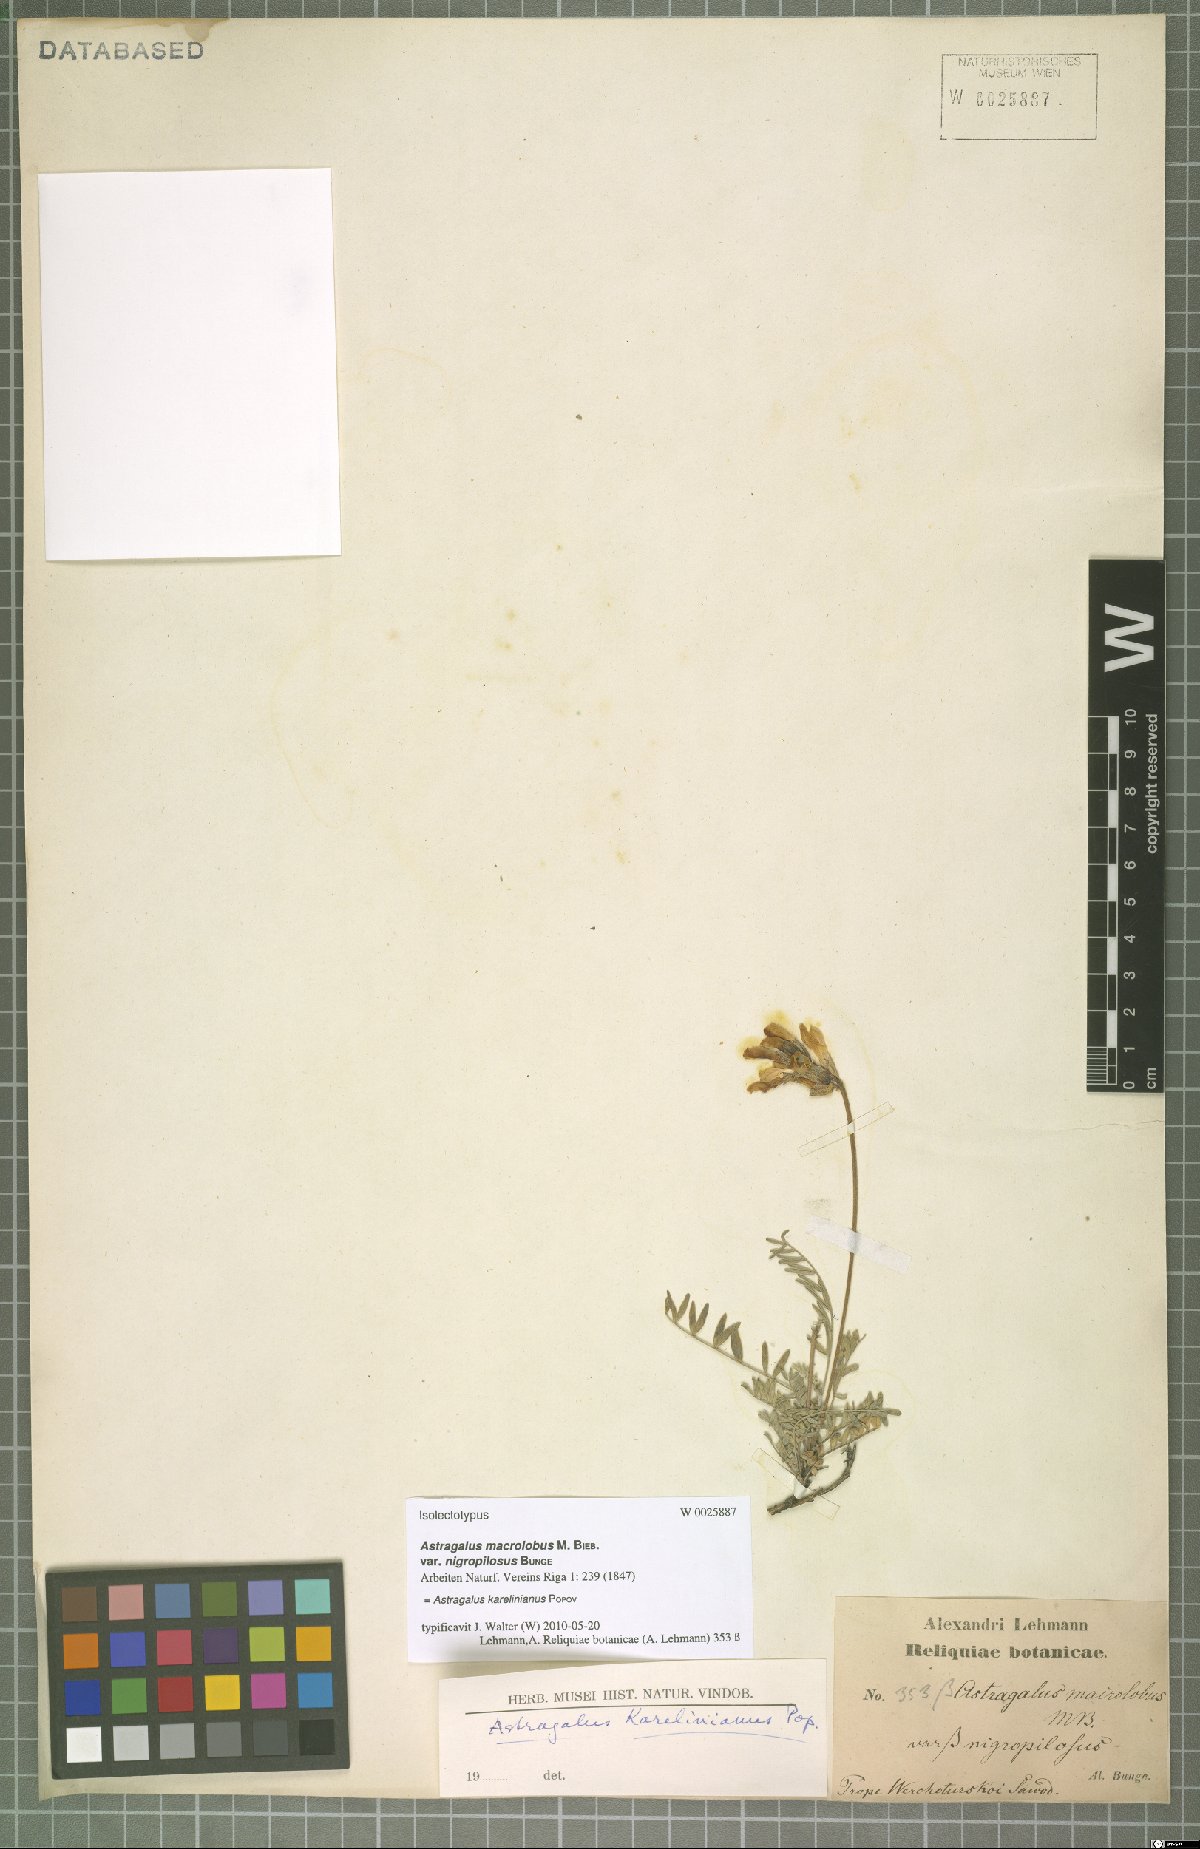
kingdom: Plantae
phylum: Tracheophyta
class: Magnoliopsida
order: Fabales
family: Fabaceae
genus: Astragalus
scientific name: Astragalus karelinianus
